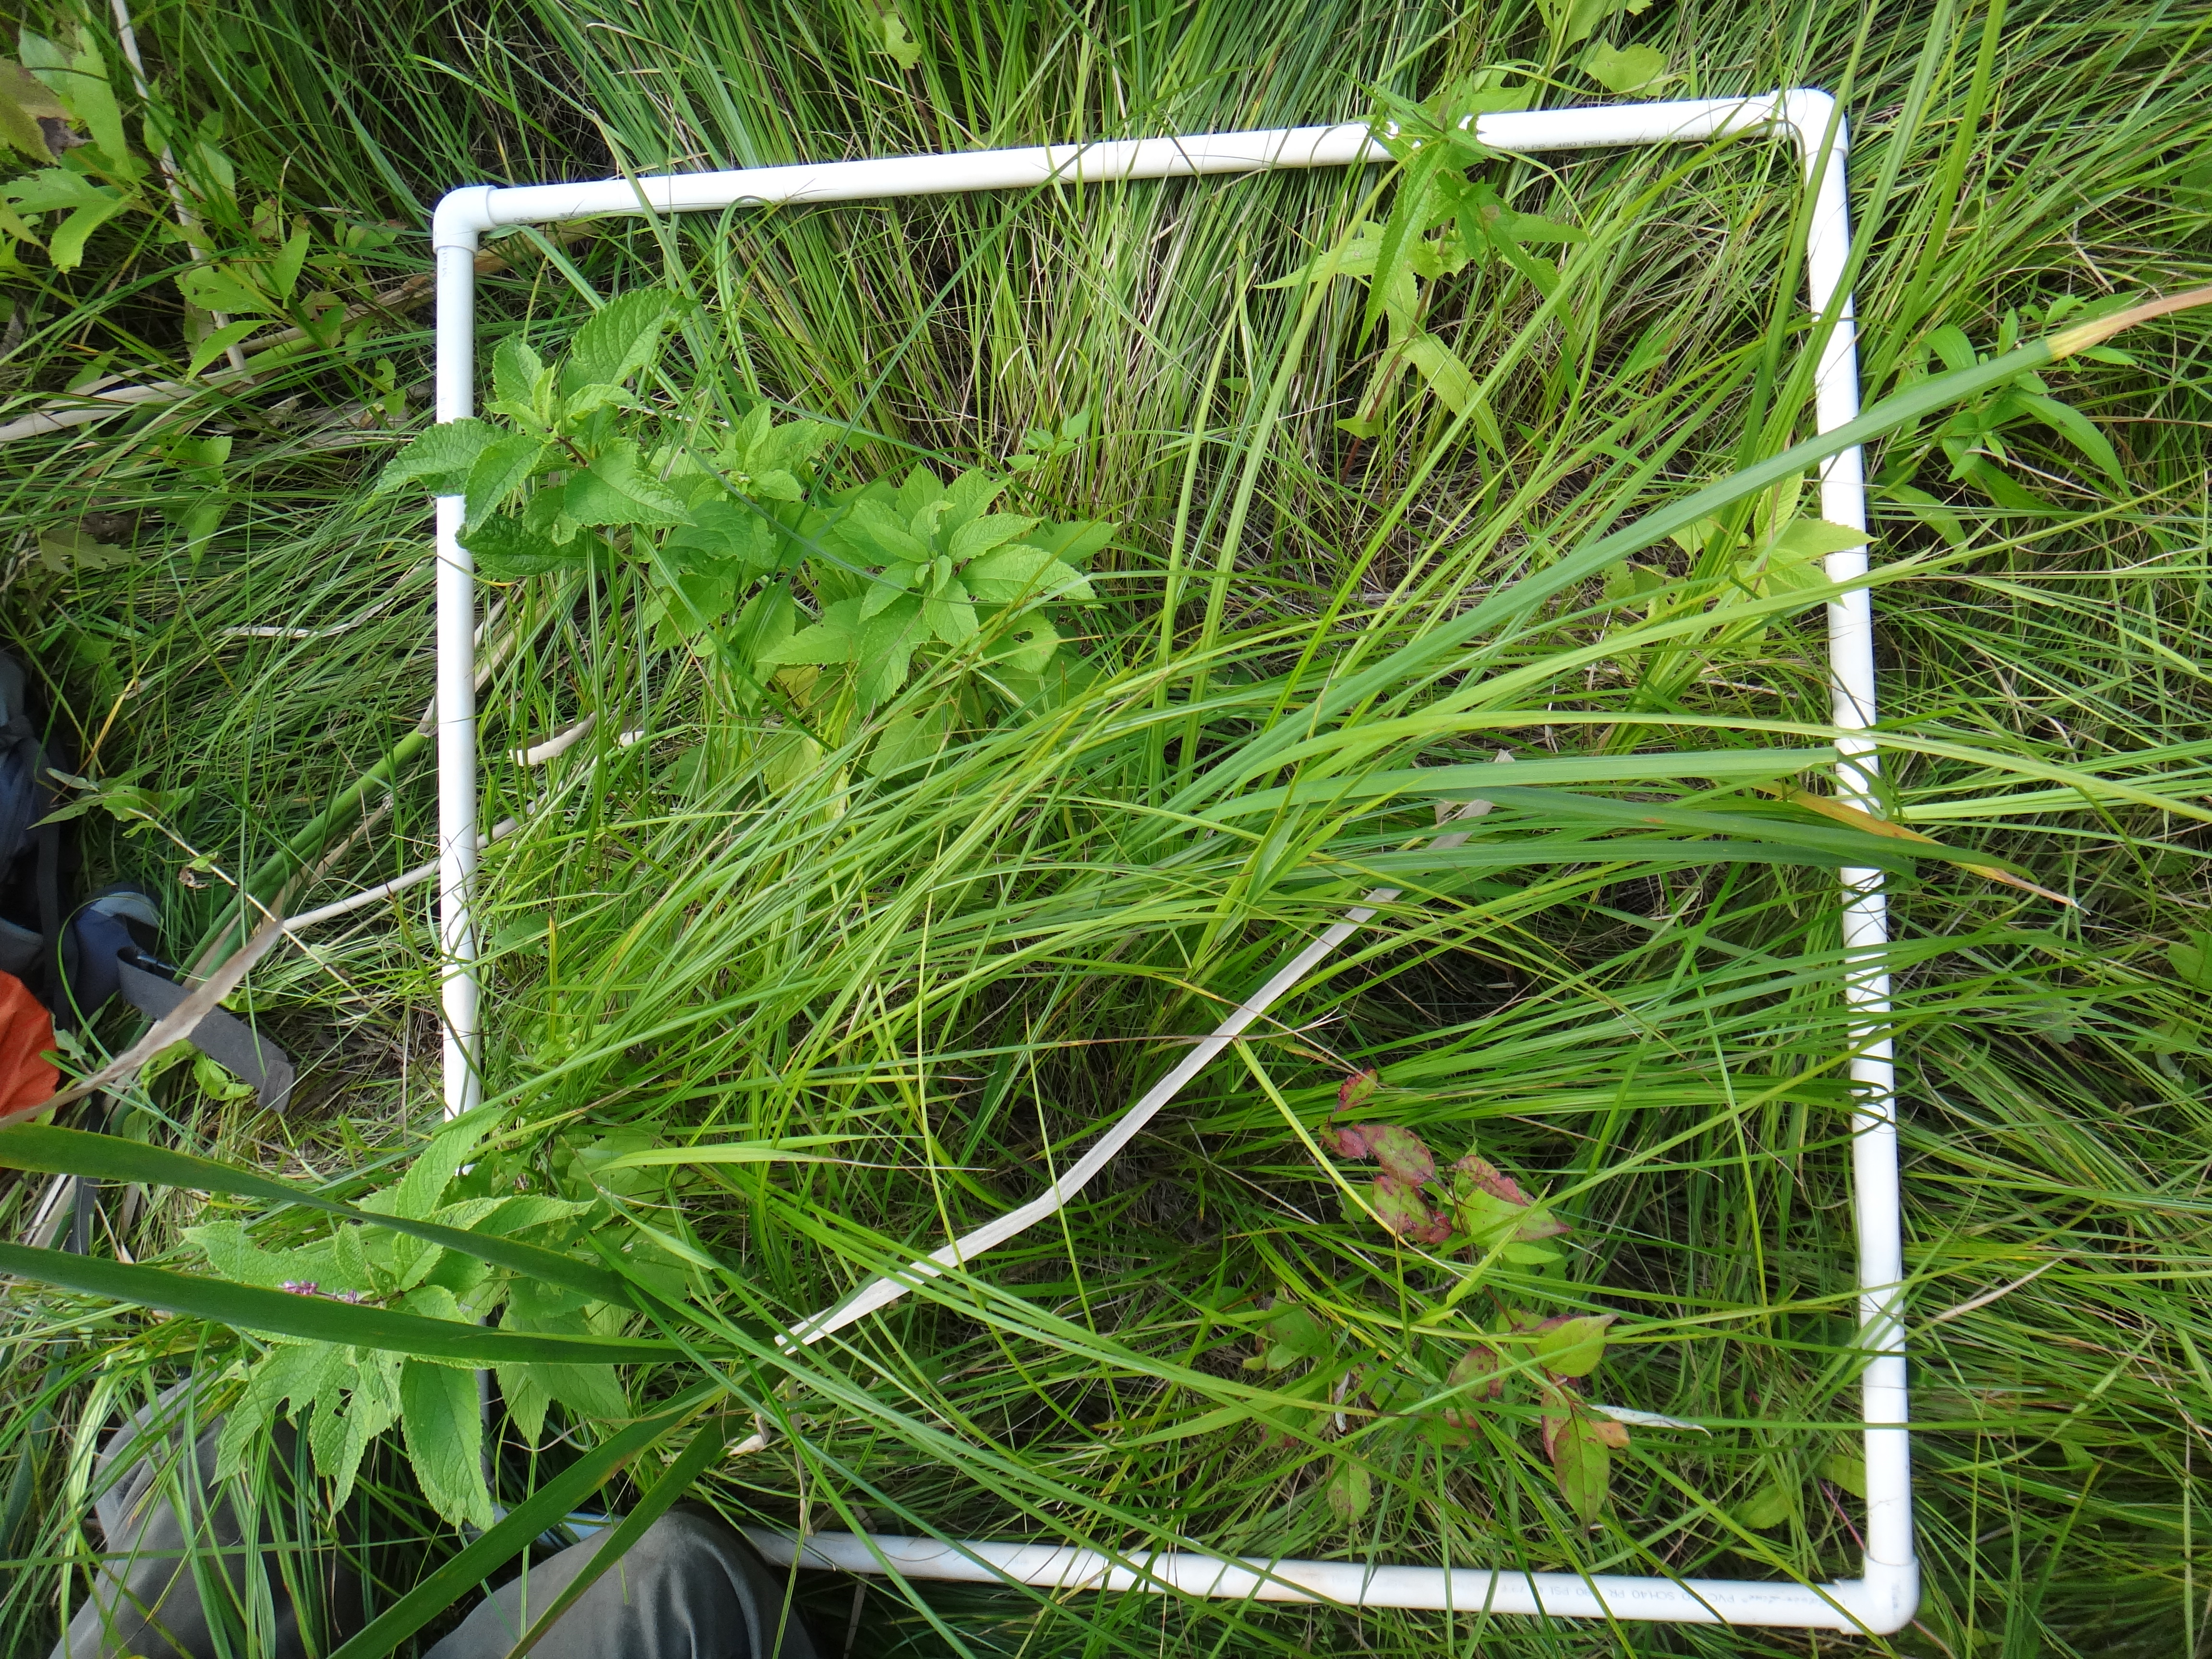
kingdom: Plantae
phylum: Tracheophyta
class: Liliopsida
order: Poales
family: Typhaceae
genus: Typha
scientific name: Typha latifolia
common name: Broadleaf cattail
